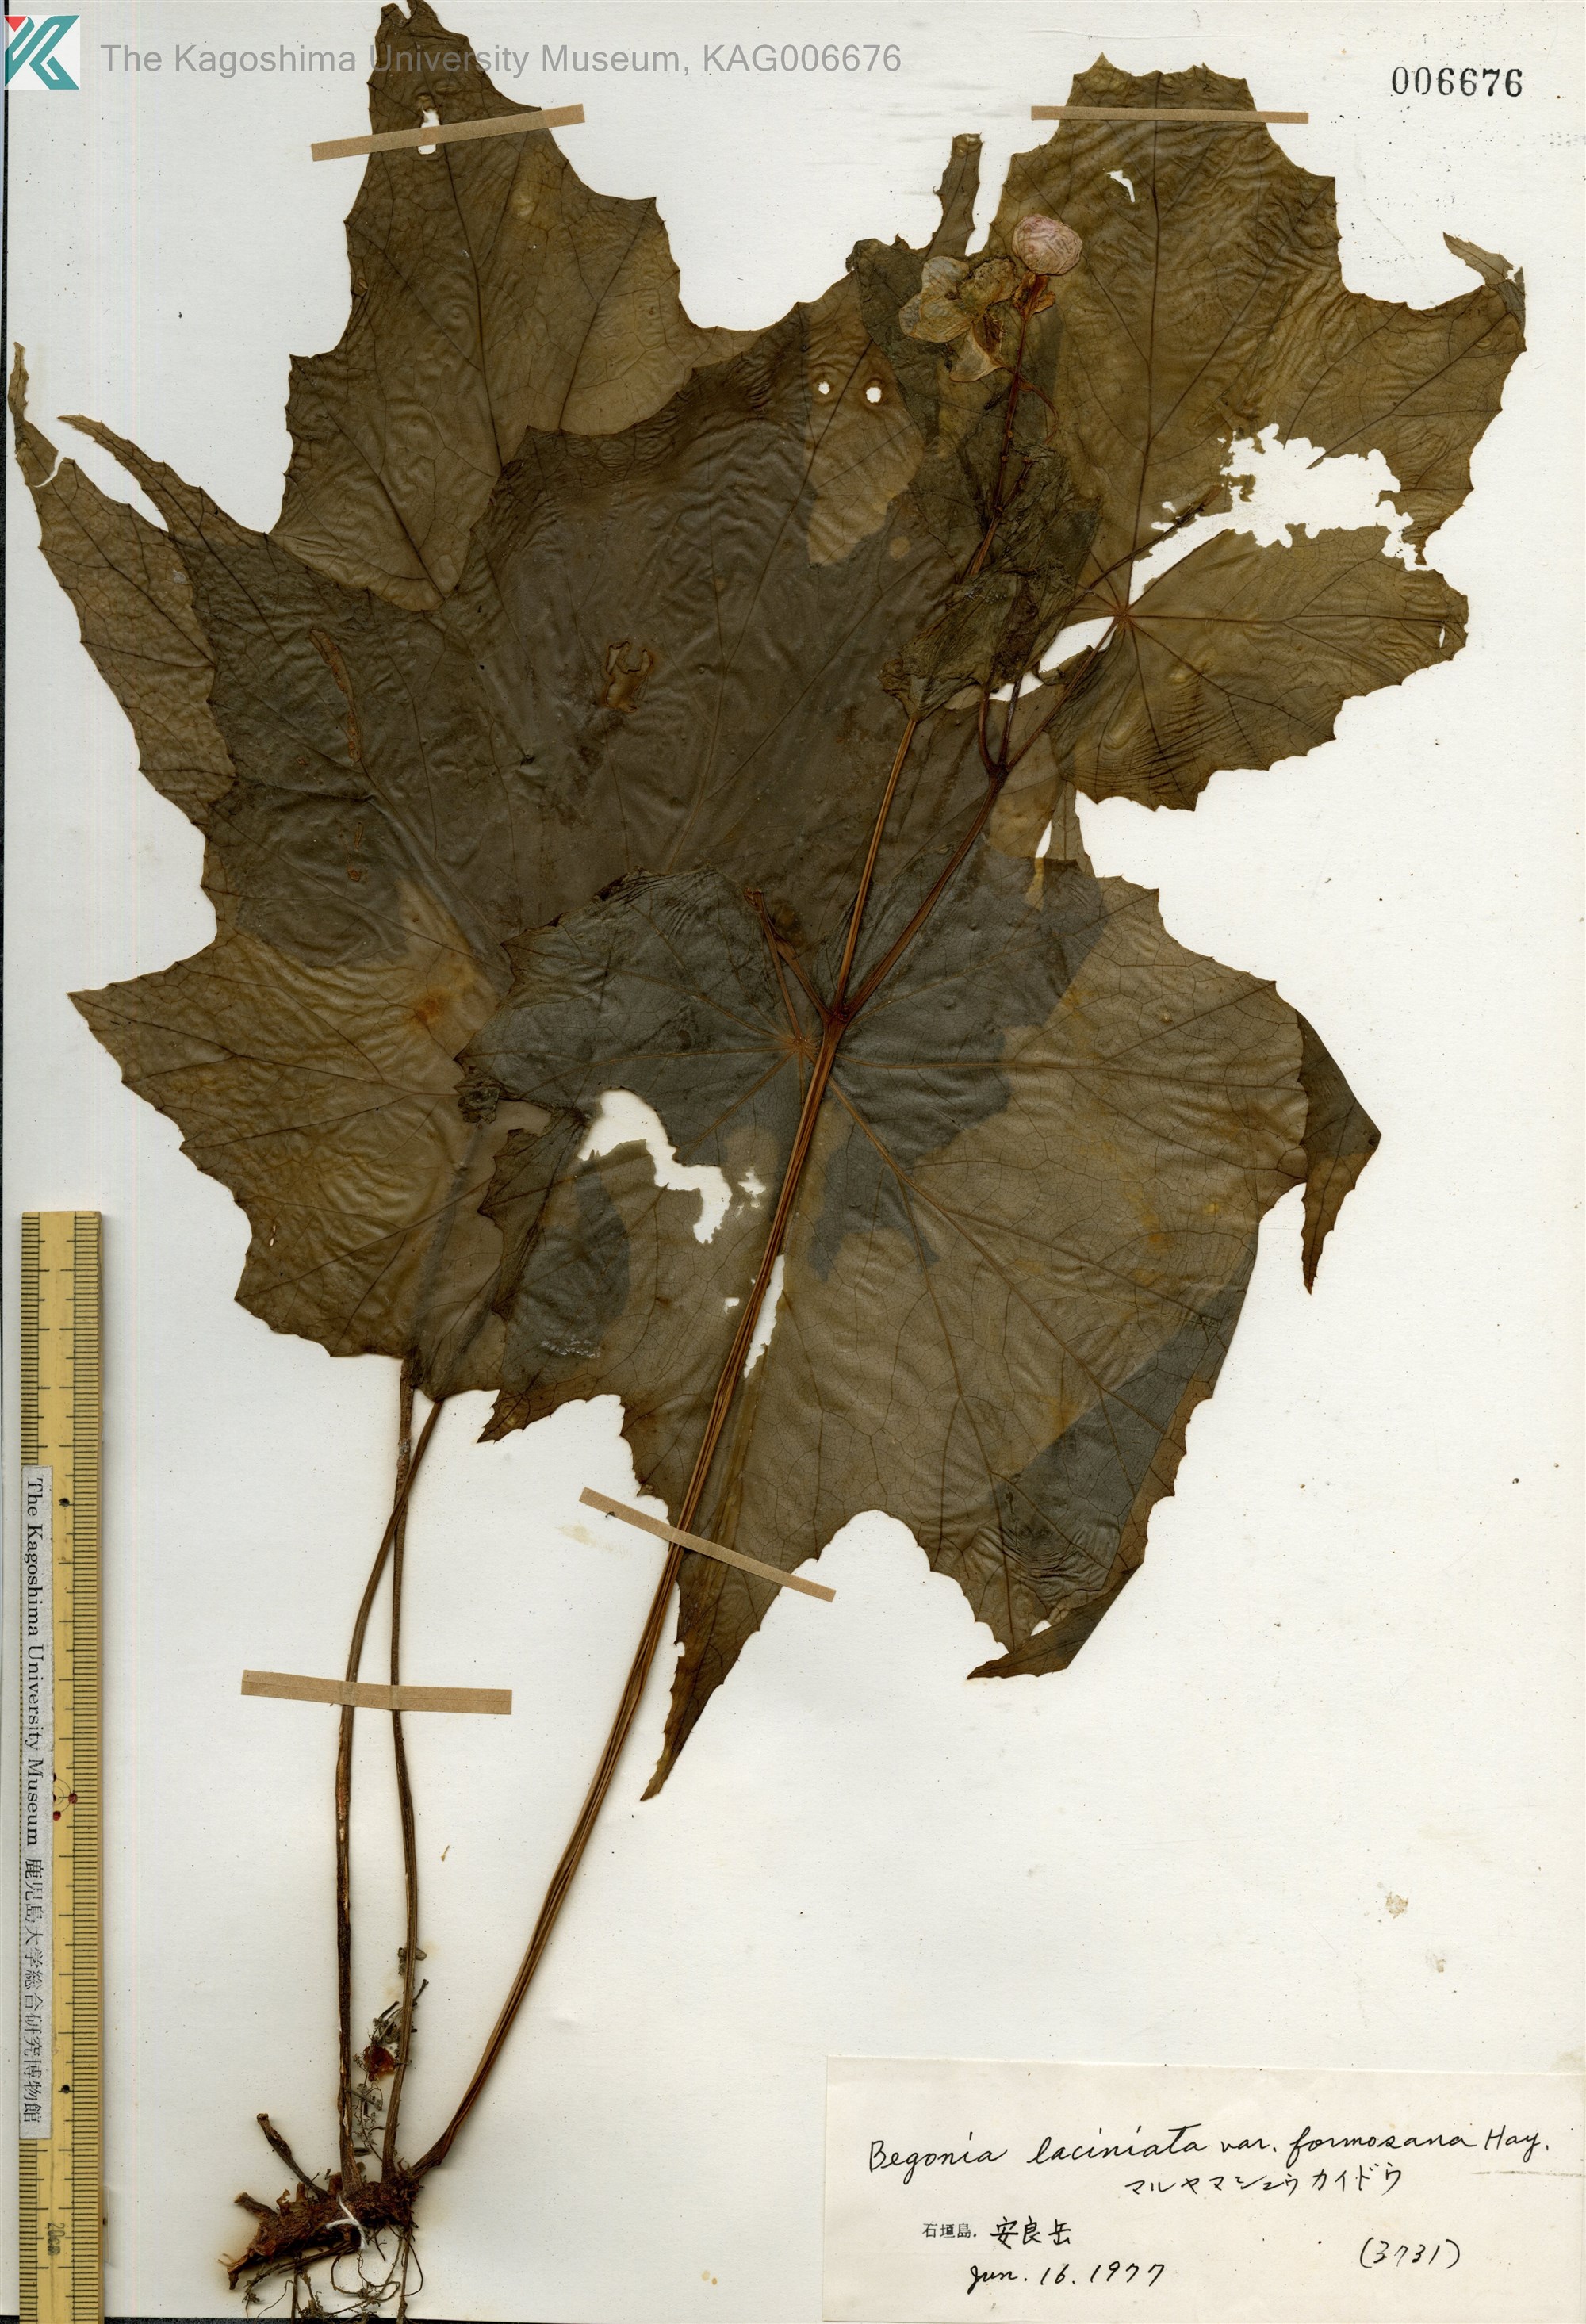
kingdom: Plantae
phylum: Tracheophyta
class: Magnoliopsida
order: Cucurbitales
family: Begoniaceae
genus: Begonia
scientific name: Begonia palmata
